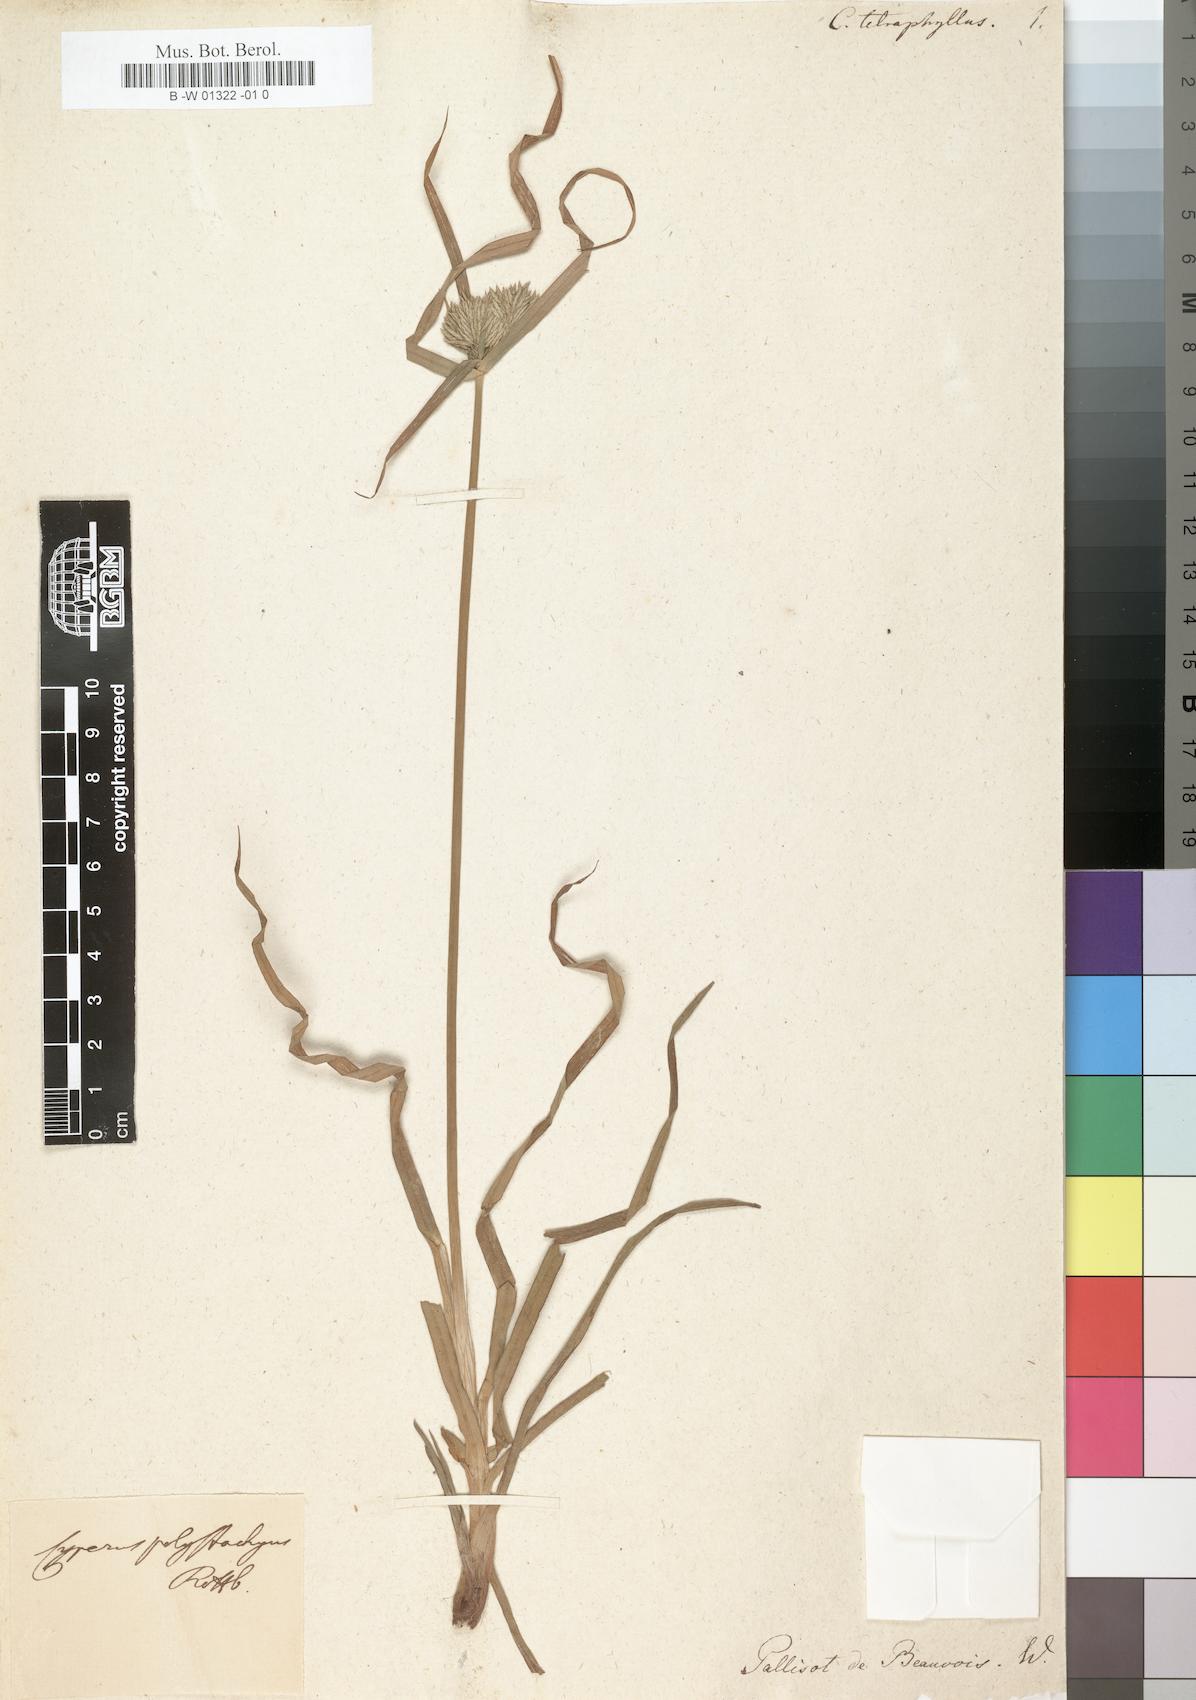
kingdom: Plantae
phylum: Tracheophyta
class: Liliopsida
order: Poales
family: Cyperaceae
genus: Cyperus
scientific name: Cyperus tetraphyllus
